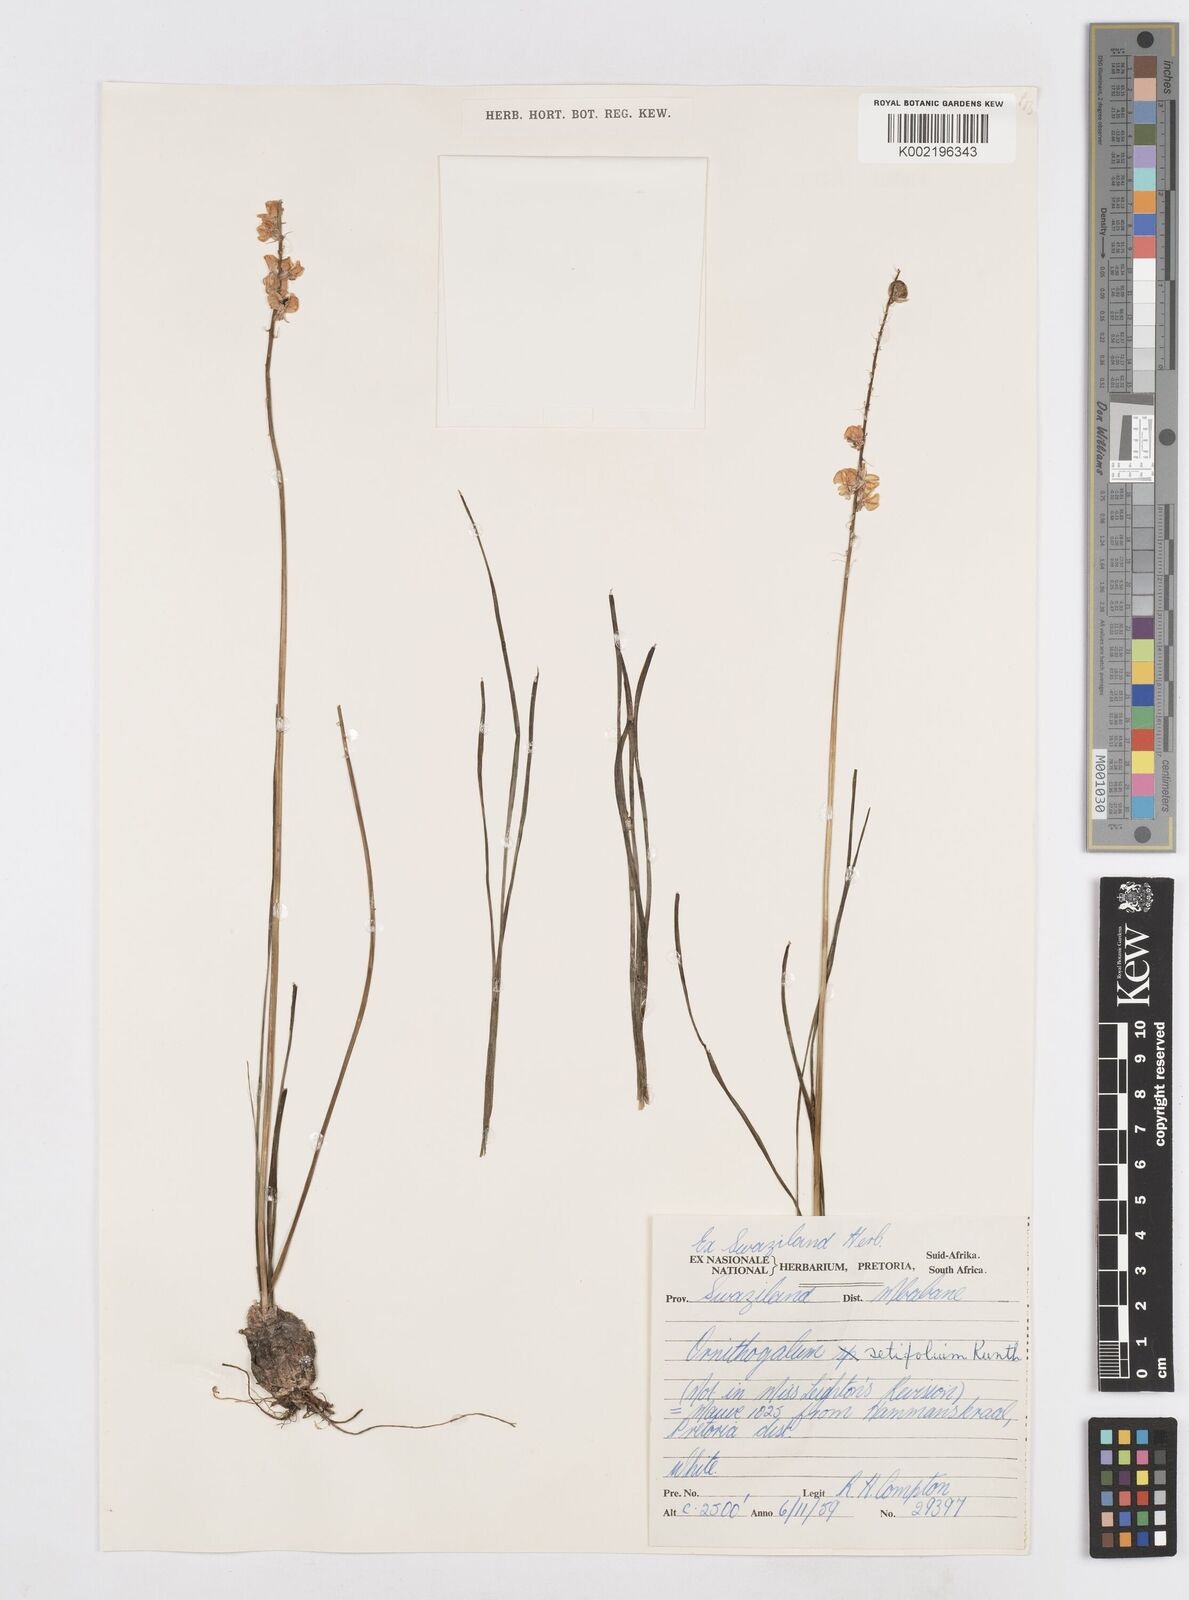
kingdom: Plantae
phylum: Tracheophyta
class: Liliopsida
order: Asparagales
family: Asparagaceae
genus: Ornithogalum
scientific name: Ornithogalum juncifolium
